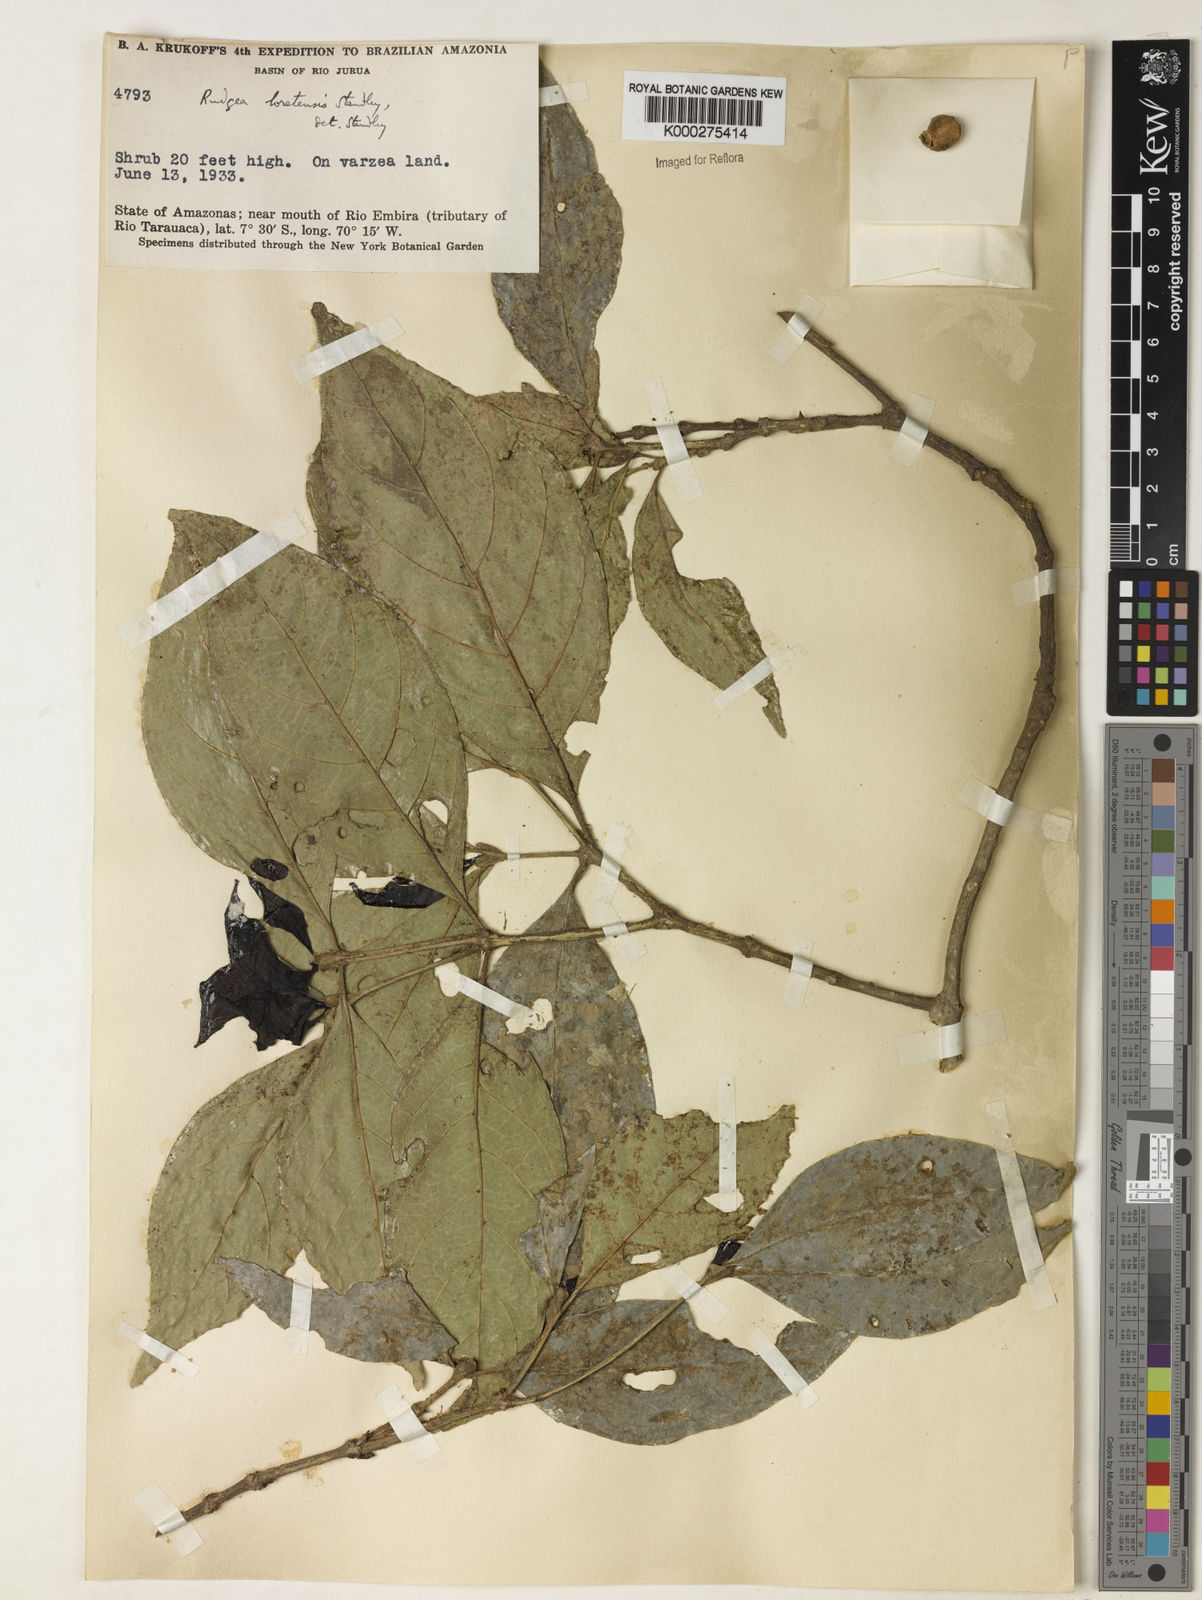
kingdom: Plantae
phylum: Tracheophyta
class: Magnoliopsida
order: Gentianales
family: Rubiaceae
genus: Rudgea
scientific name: Rudgea loretensis
